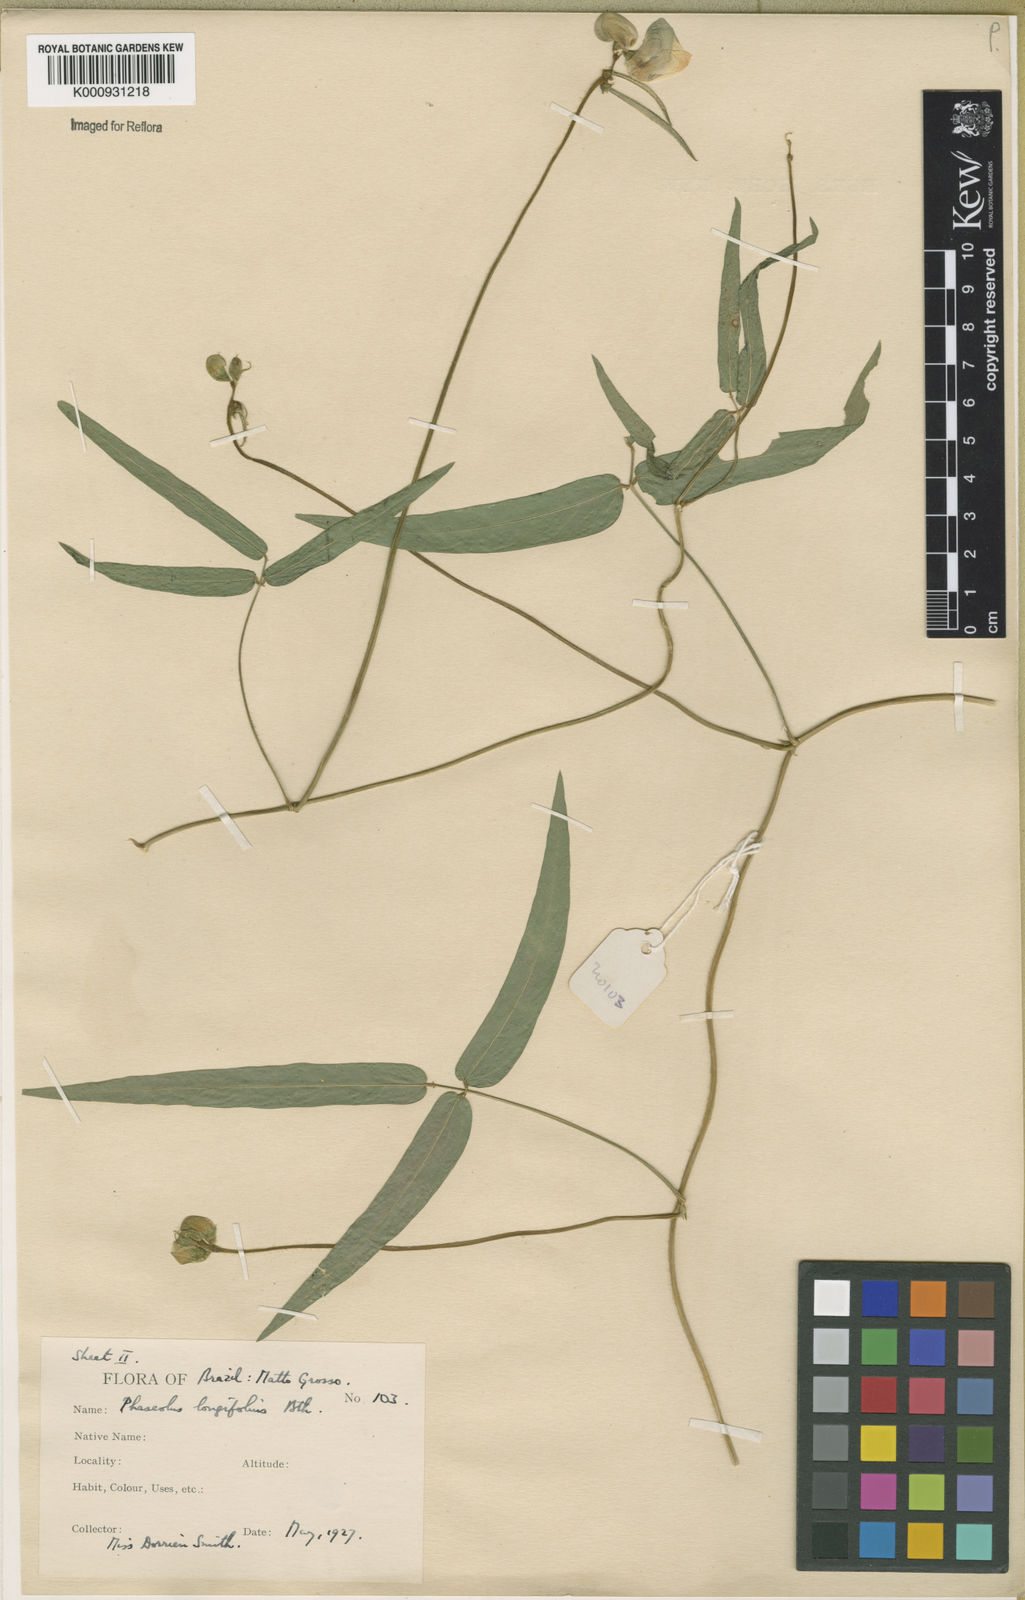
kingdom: Plantae
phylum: Tracheophyta
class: Magnoliopsida
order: Fabales
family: Fabaceae
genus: Vigna
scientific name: Vigna longifolia
